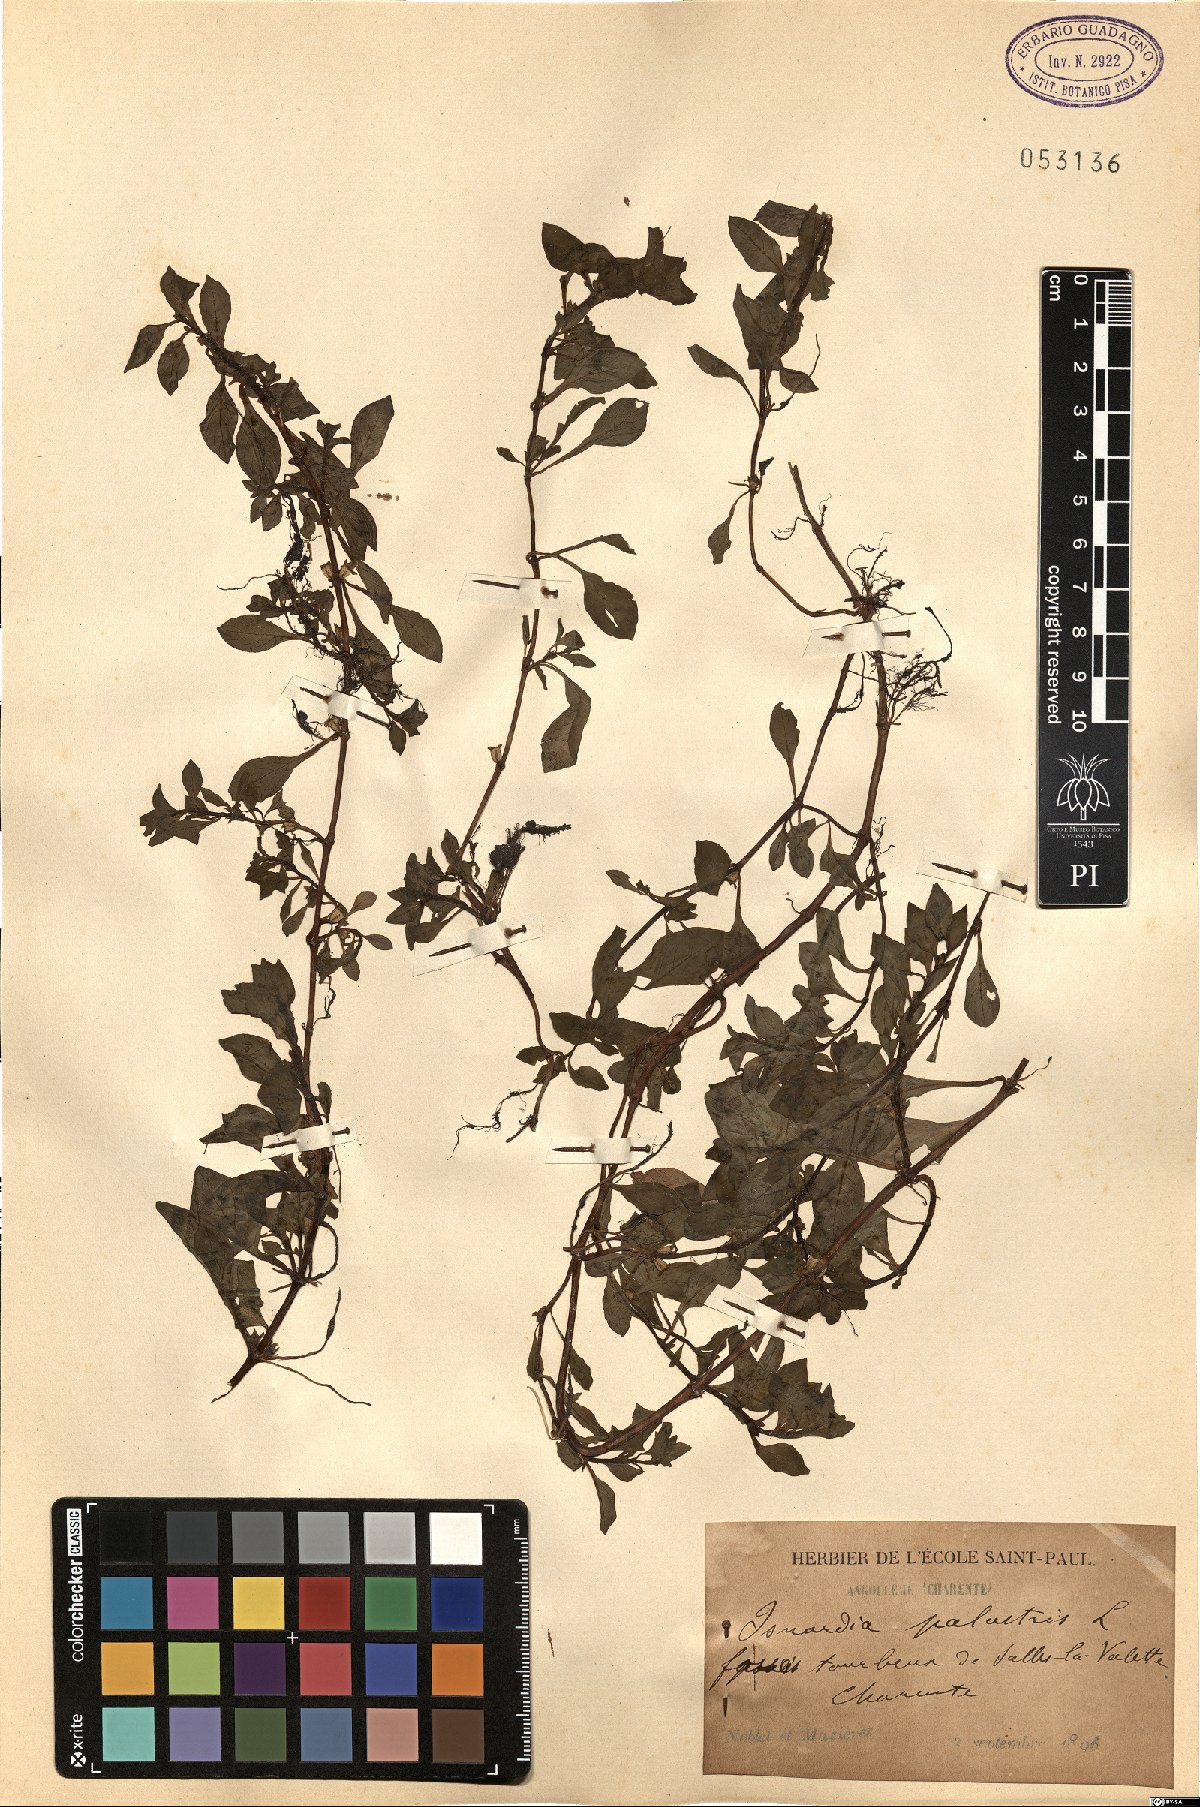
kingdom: Plantae
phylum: Tracheophyta
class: Magnoliopsida
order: Myrtales
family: Onagraceae
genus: Ludwigia
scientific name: Ludwigia palustris
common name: Hampshire-purslane
